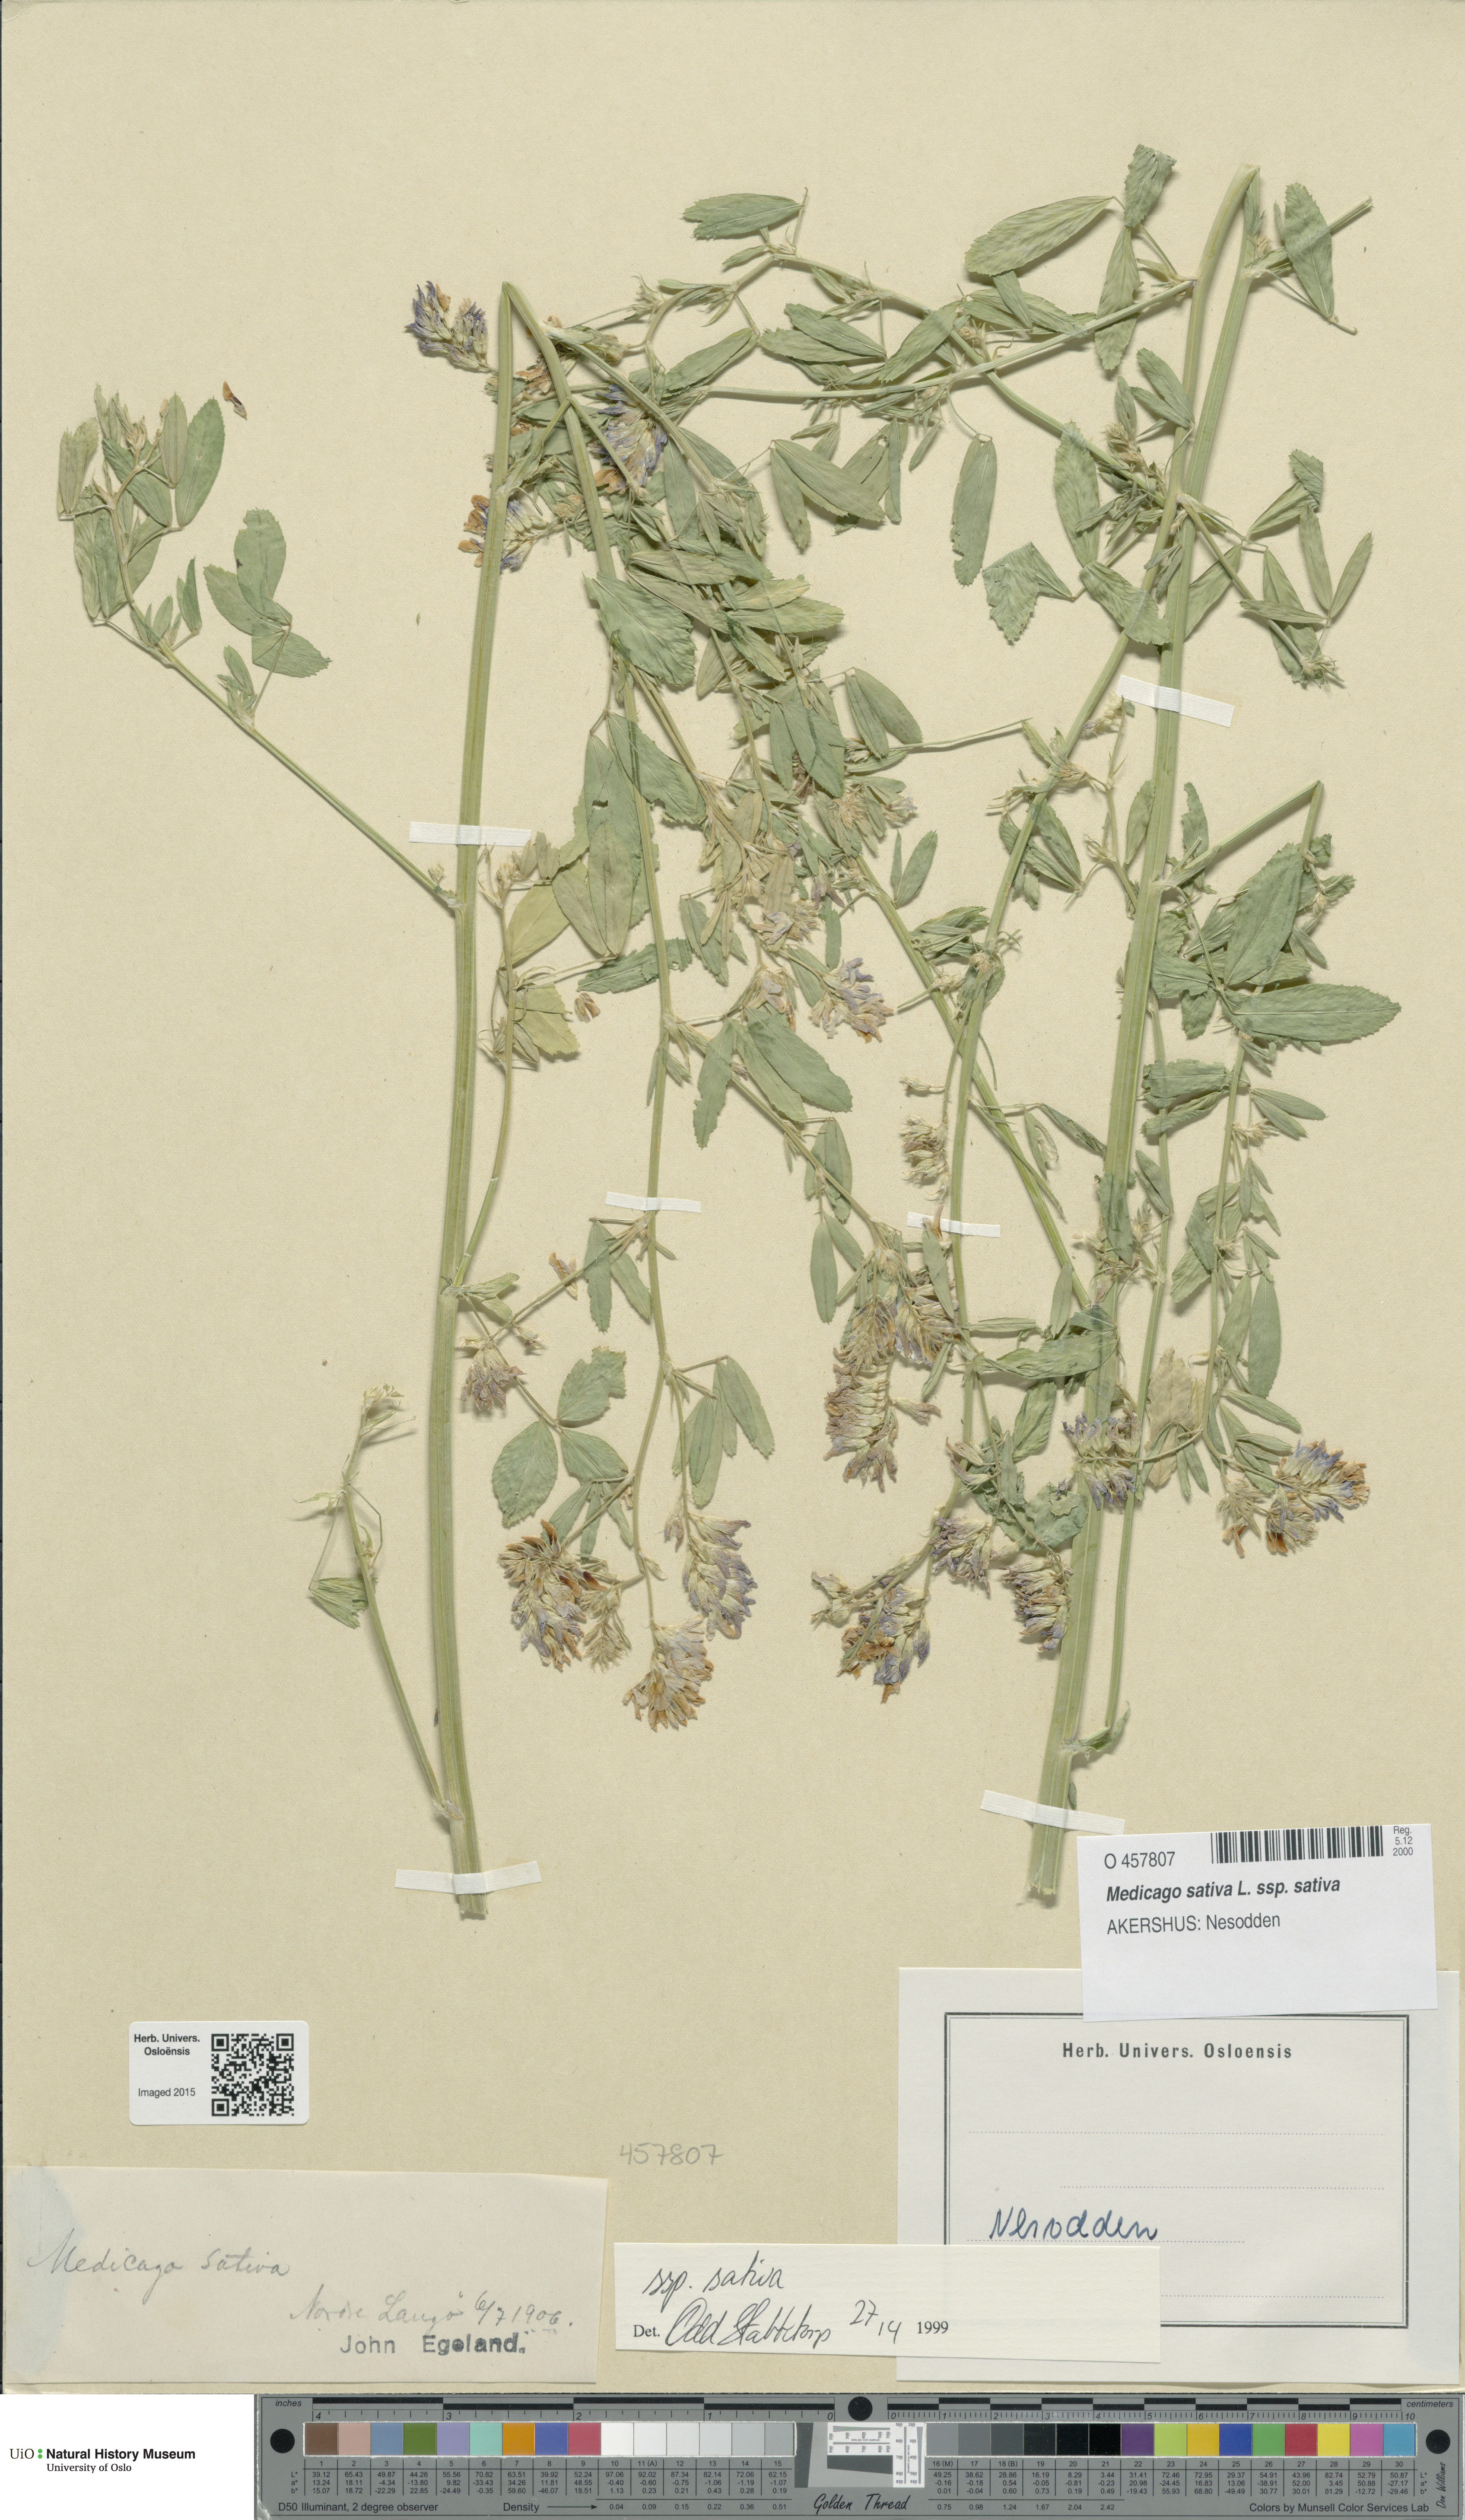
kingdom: Plantae
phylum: Tracheophyta
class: Magnoliopsida
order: Fabales
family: Fabaceae
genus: Medicago
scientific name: Medicago sativa
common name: Alfalfa
